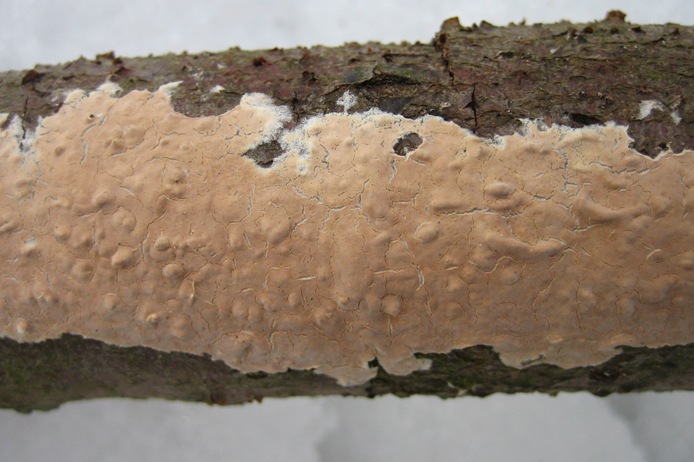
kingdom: Fungi
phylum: Basidiomycota
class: Agaricomycetes
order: Agaricales
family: Physalacriaceae
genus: Cylindrobasidium
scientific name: Cylindrobasidium evolvens
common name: sprækkehinde
